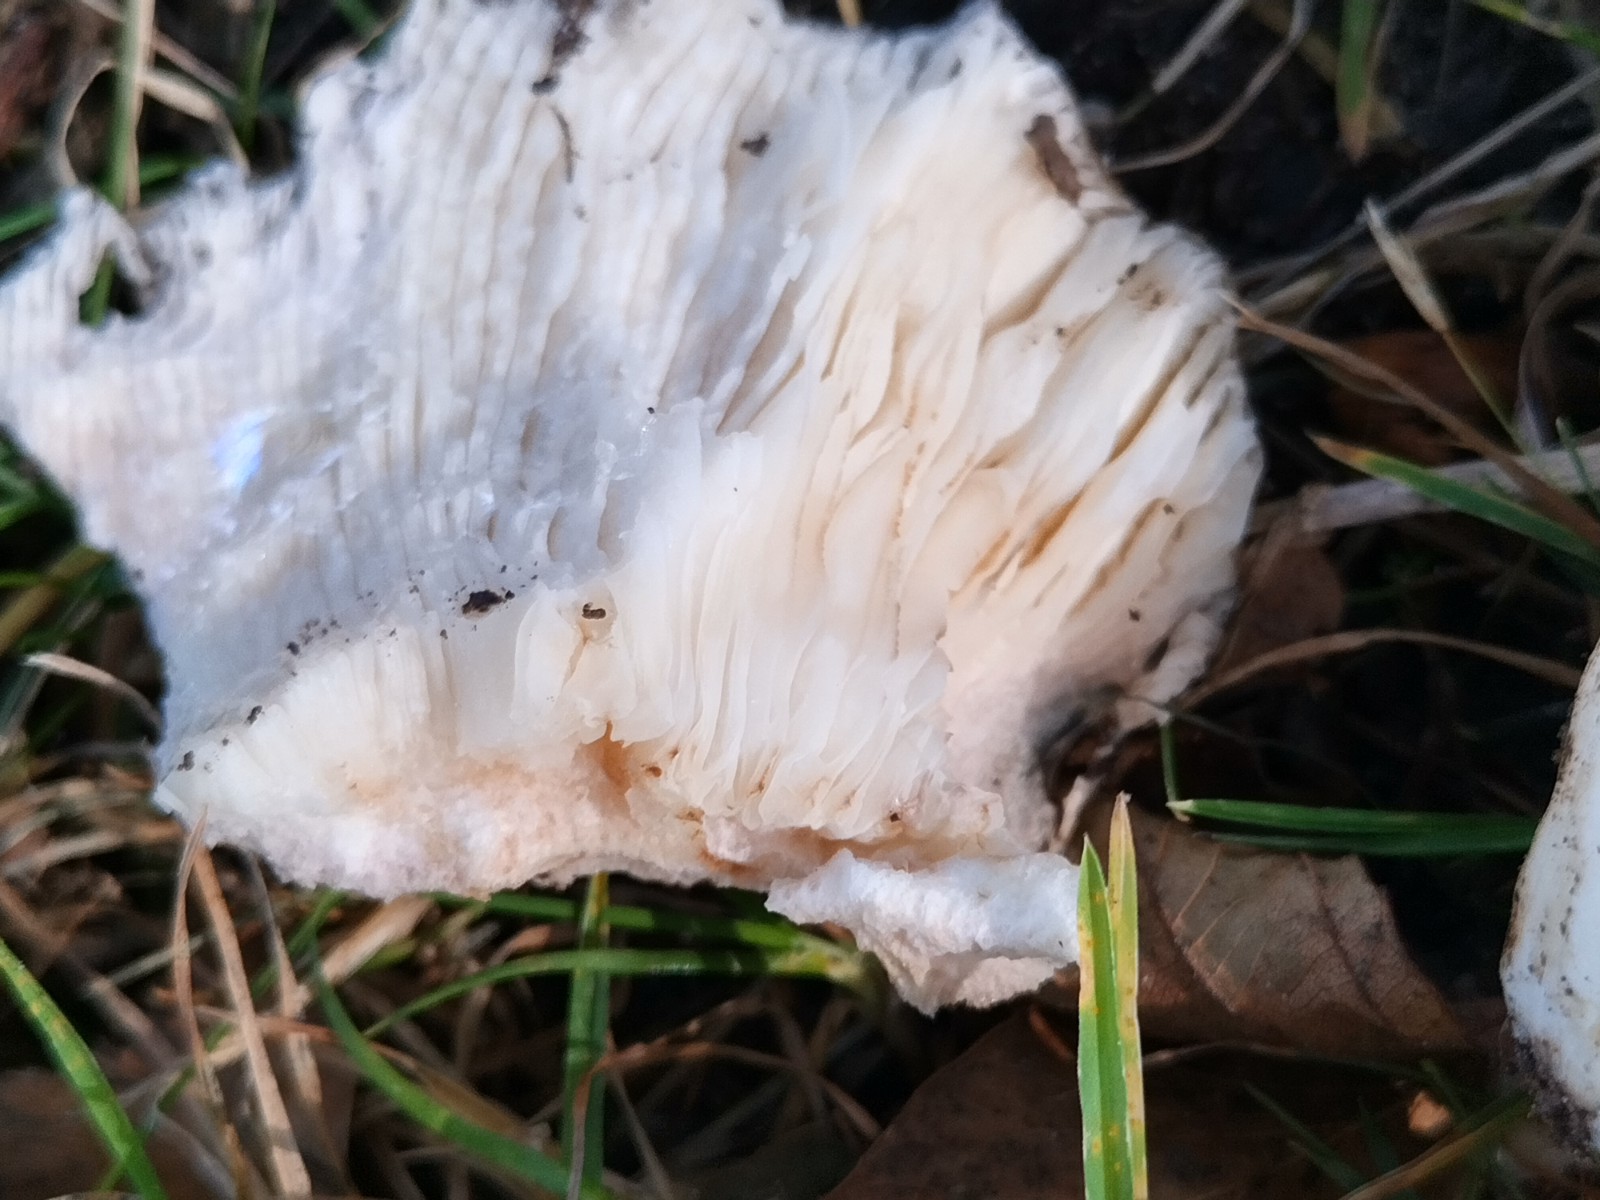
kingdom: Fungi
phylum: Basidiomycota
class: Agaricomycetes
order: Russulales
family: Russulaceae
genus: Russula
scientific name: Russula
